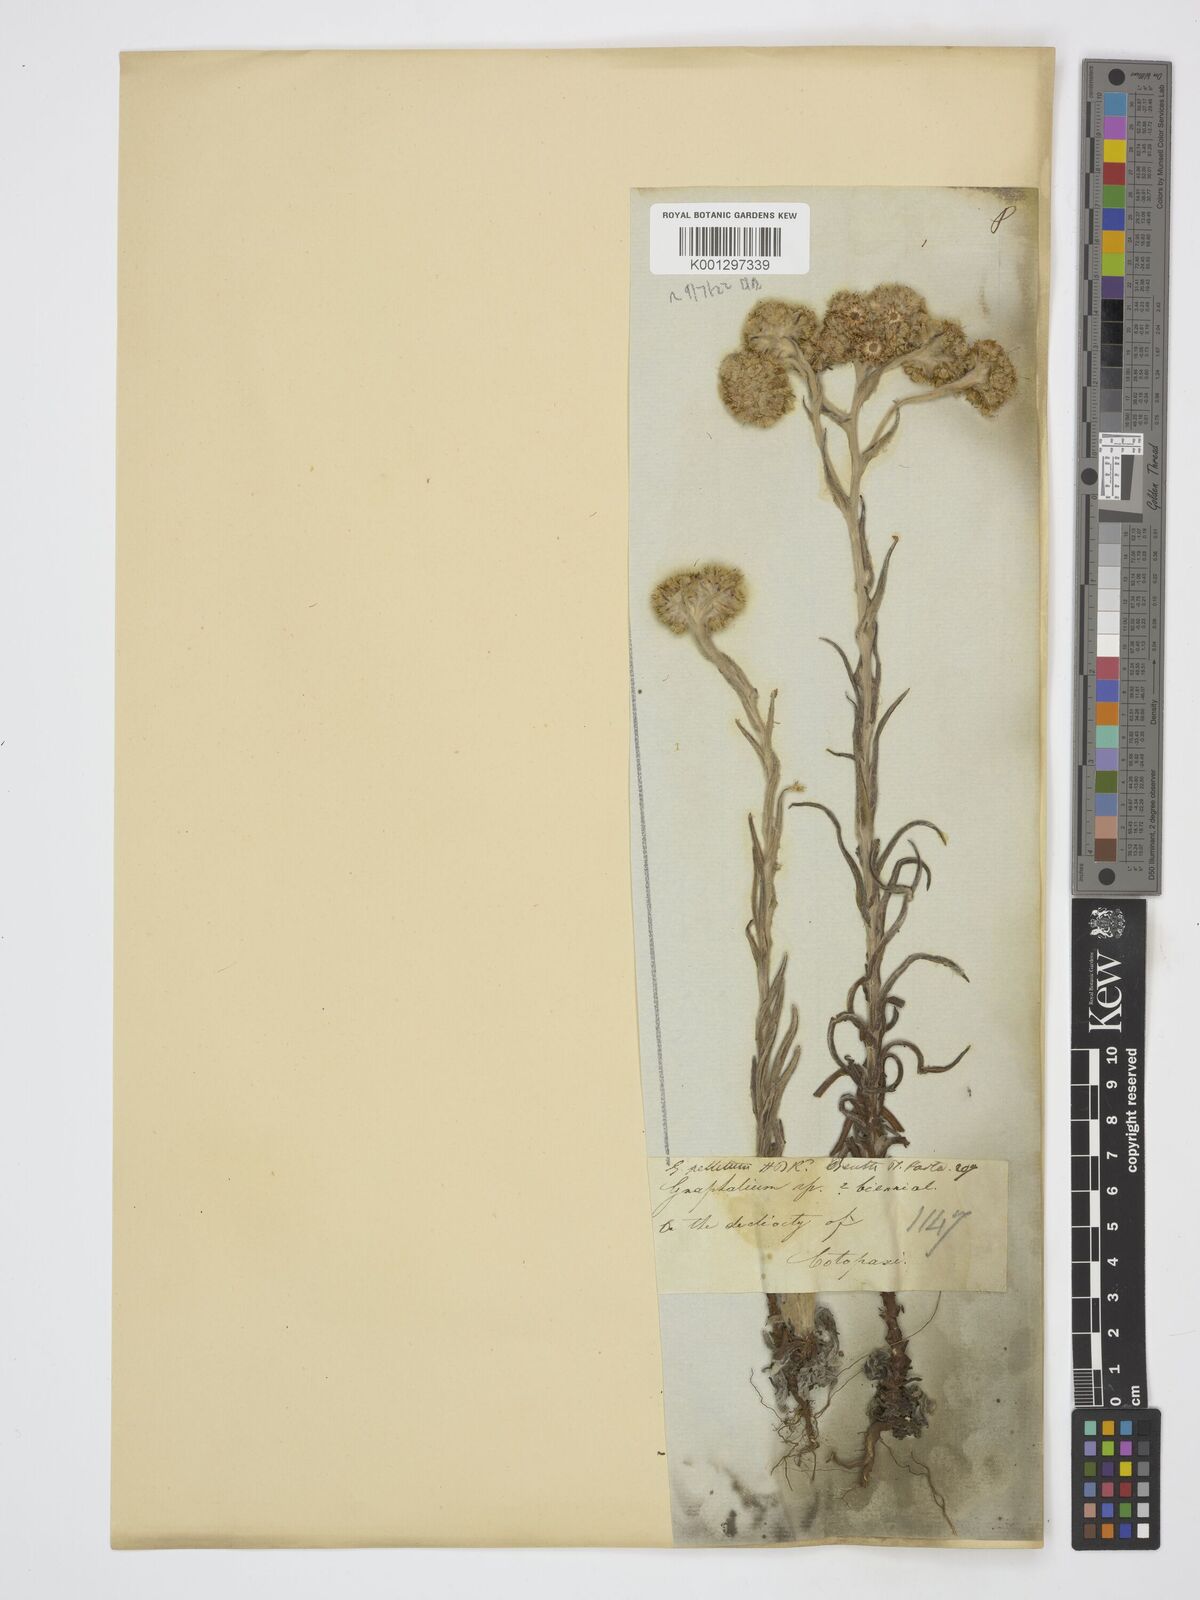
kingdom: Plantae
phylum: Tracheophyta
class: Magnoliopsida
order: Asterales
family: Asteraceae
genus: Achyrocline
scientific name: Achyrocline alata
